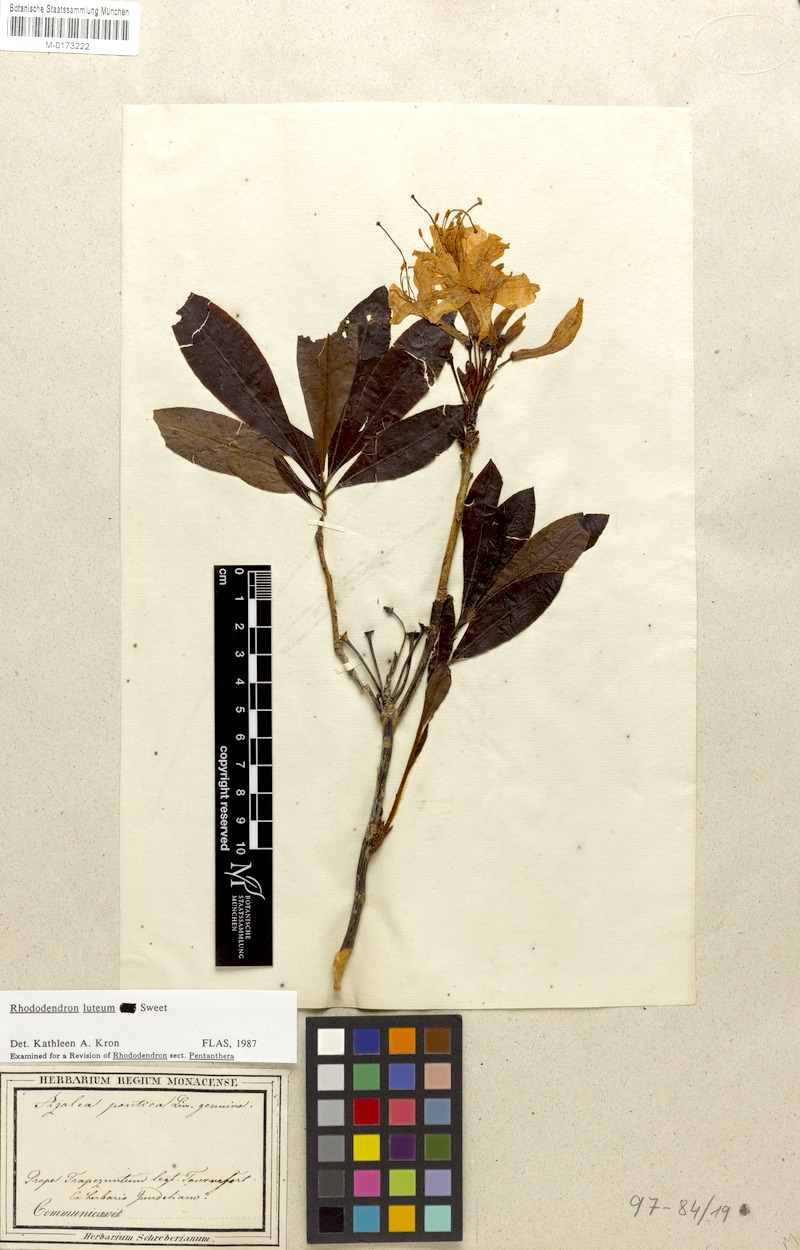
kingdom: Plantae
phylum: Tracheophyta
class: Magnoliopsida
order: Ericales
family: Ericaceae
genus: Rhododendron
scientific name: Rhododendron luteum
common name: Yellow azalea
